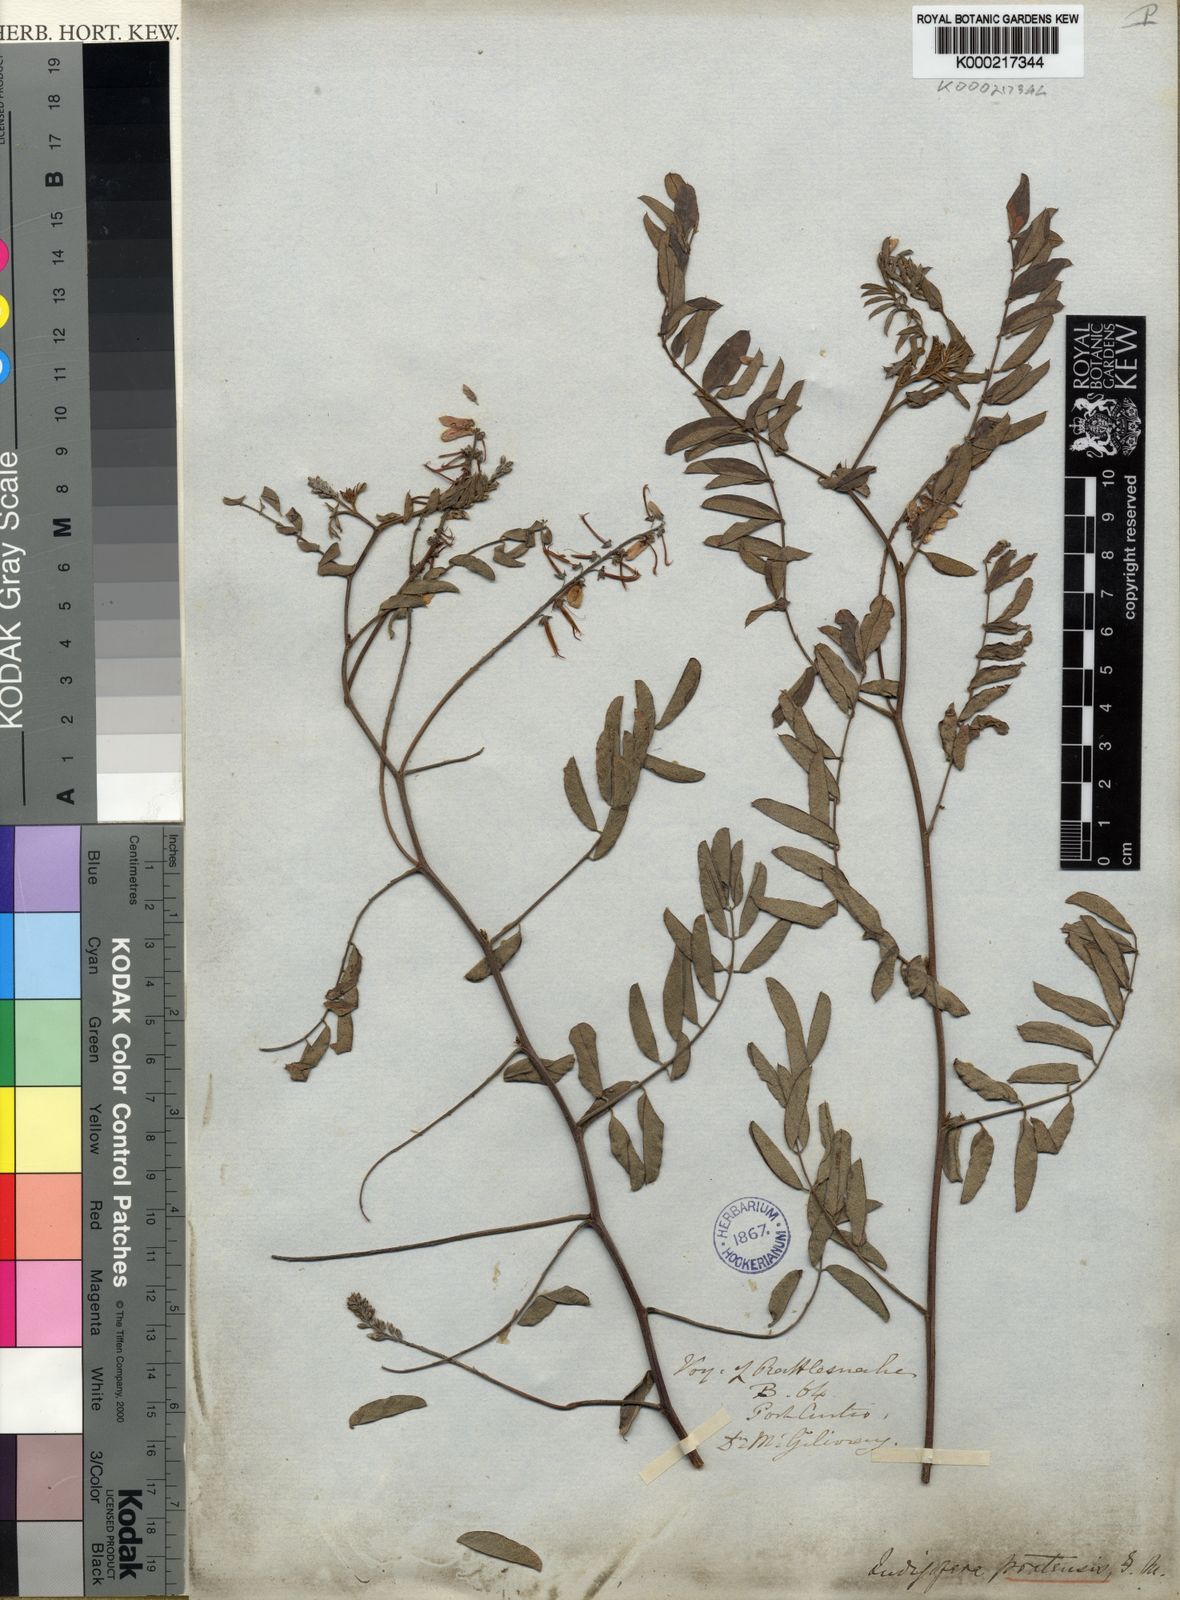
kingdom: Plantae
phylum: Tracheophyta
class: Magnoliopsida
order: Fabales
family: Fabaceae
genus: Indigofera
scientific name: Indigofera pratensis
